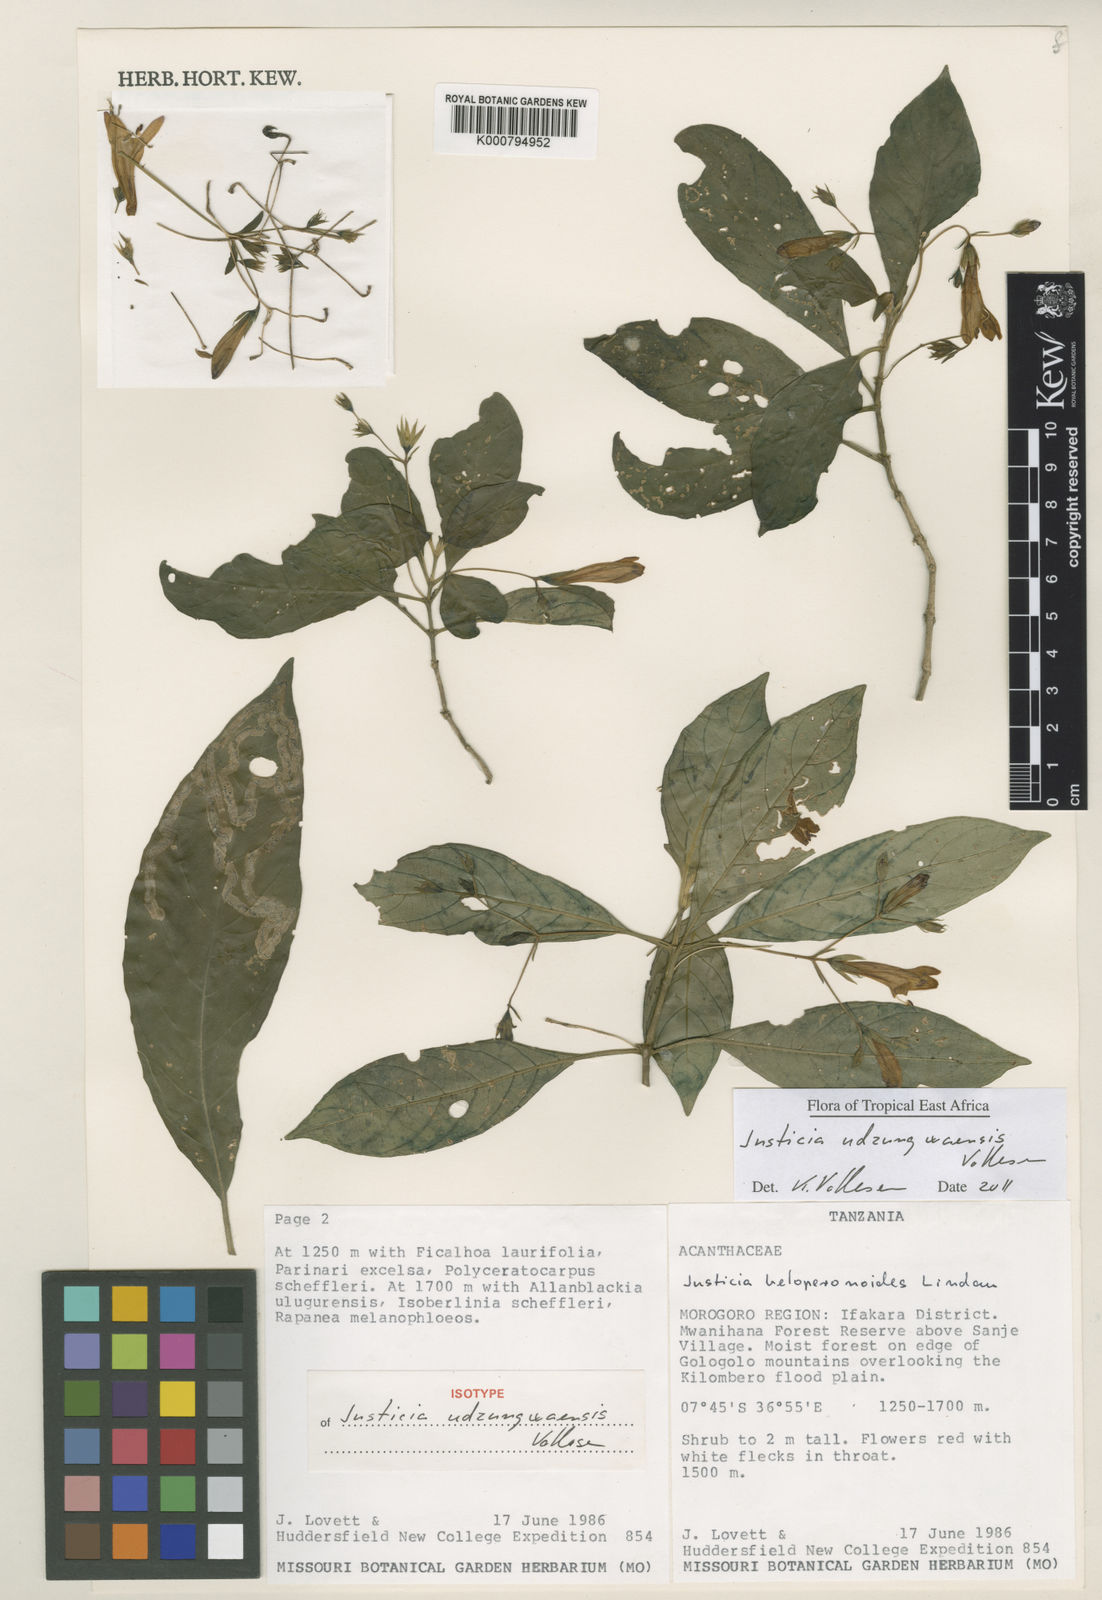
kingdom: Plantae
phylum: Tracheophyta
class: Magnoliopsida
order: Lamiales
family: Acanthaceae
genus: Justicia
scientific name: Justicia udzungwaensis
